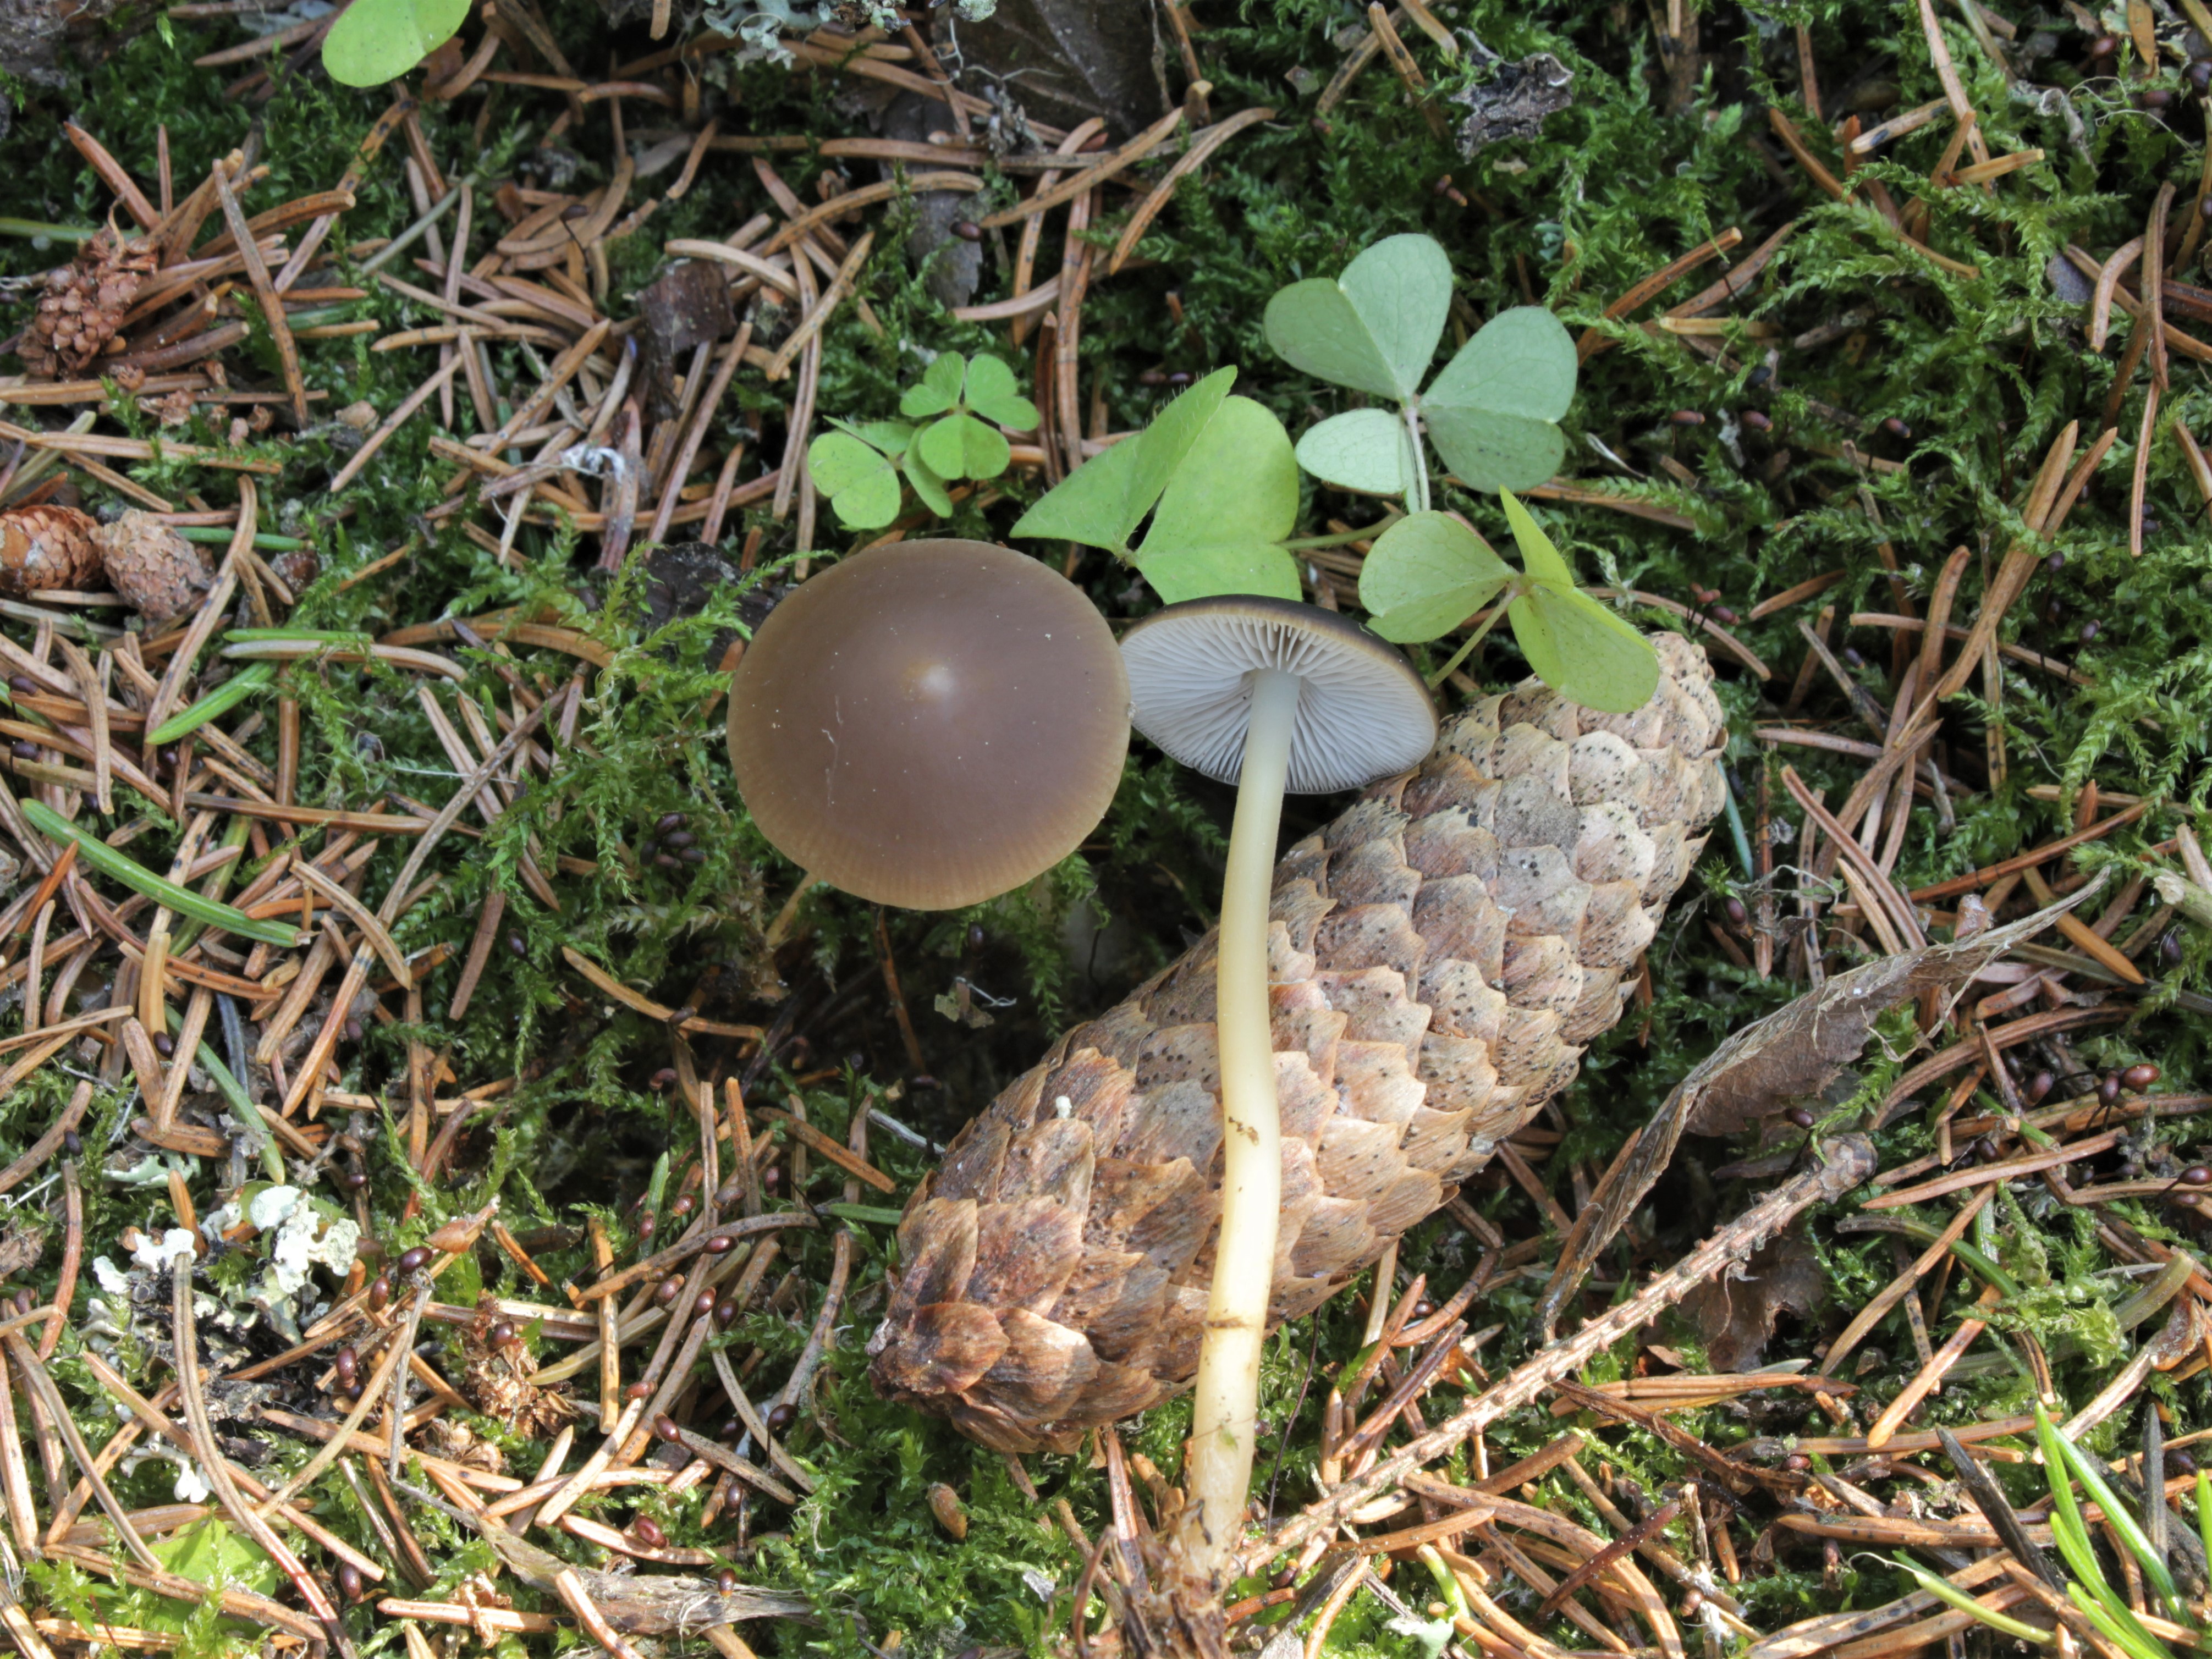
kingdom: Fungi
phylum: Basidiomycota
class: Agaricomycetes
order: Agaricales
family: Physalacriaceae
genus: Strobilurus
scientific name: Strobilurus esculentus
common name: Sprucecone cap
